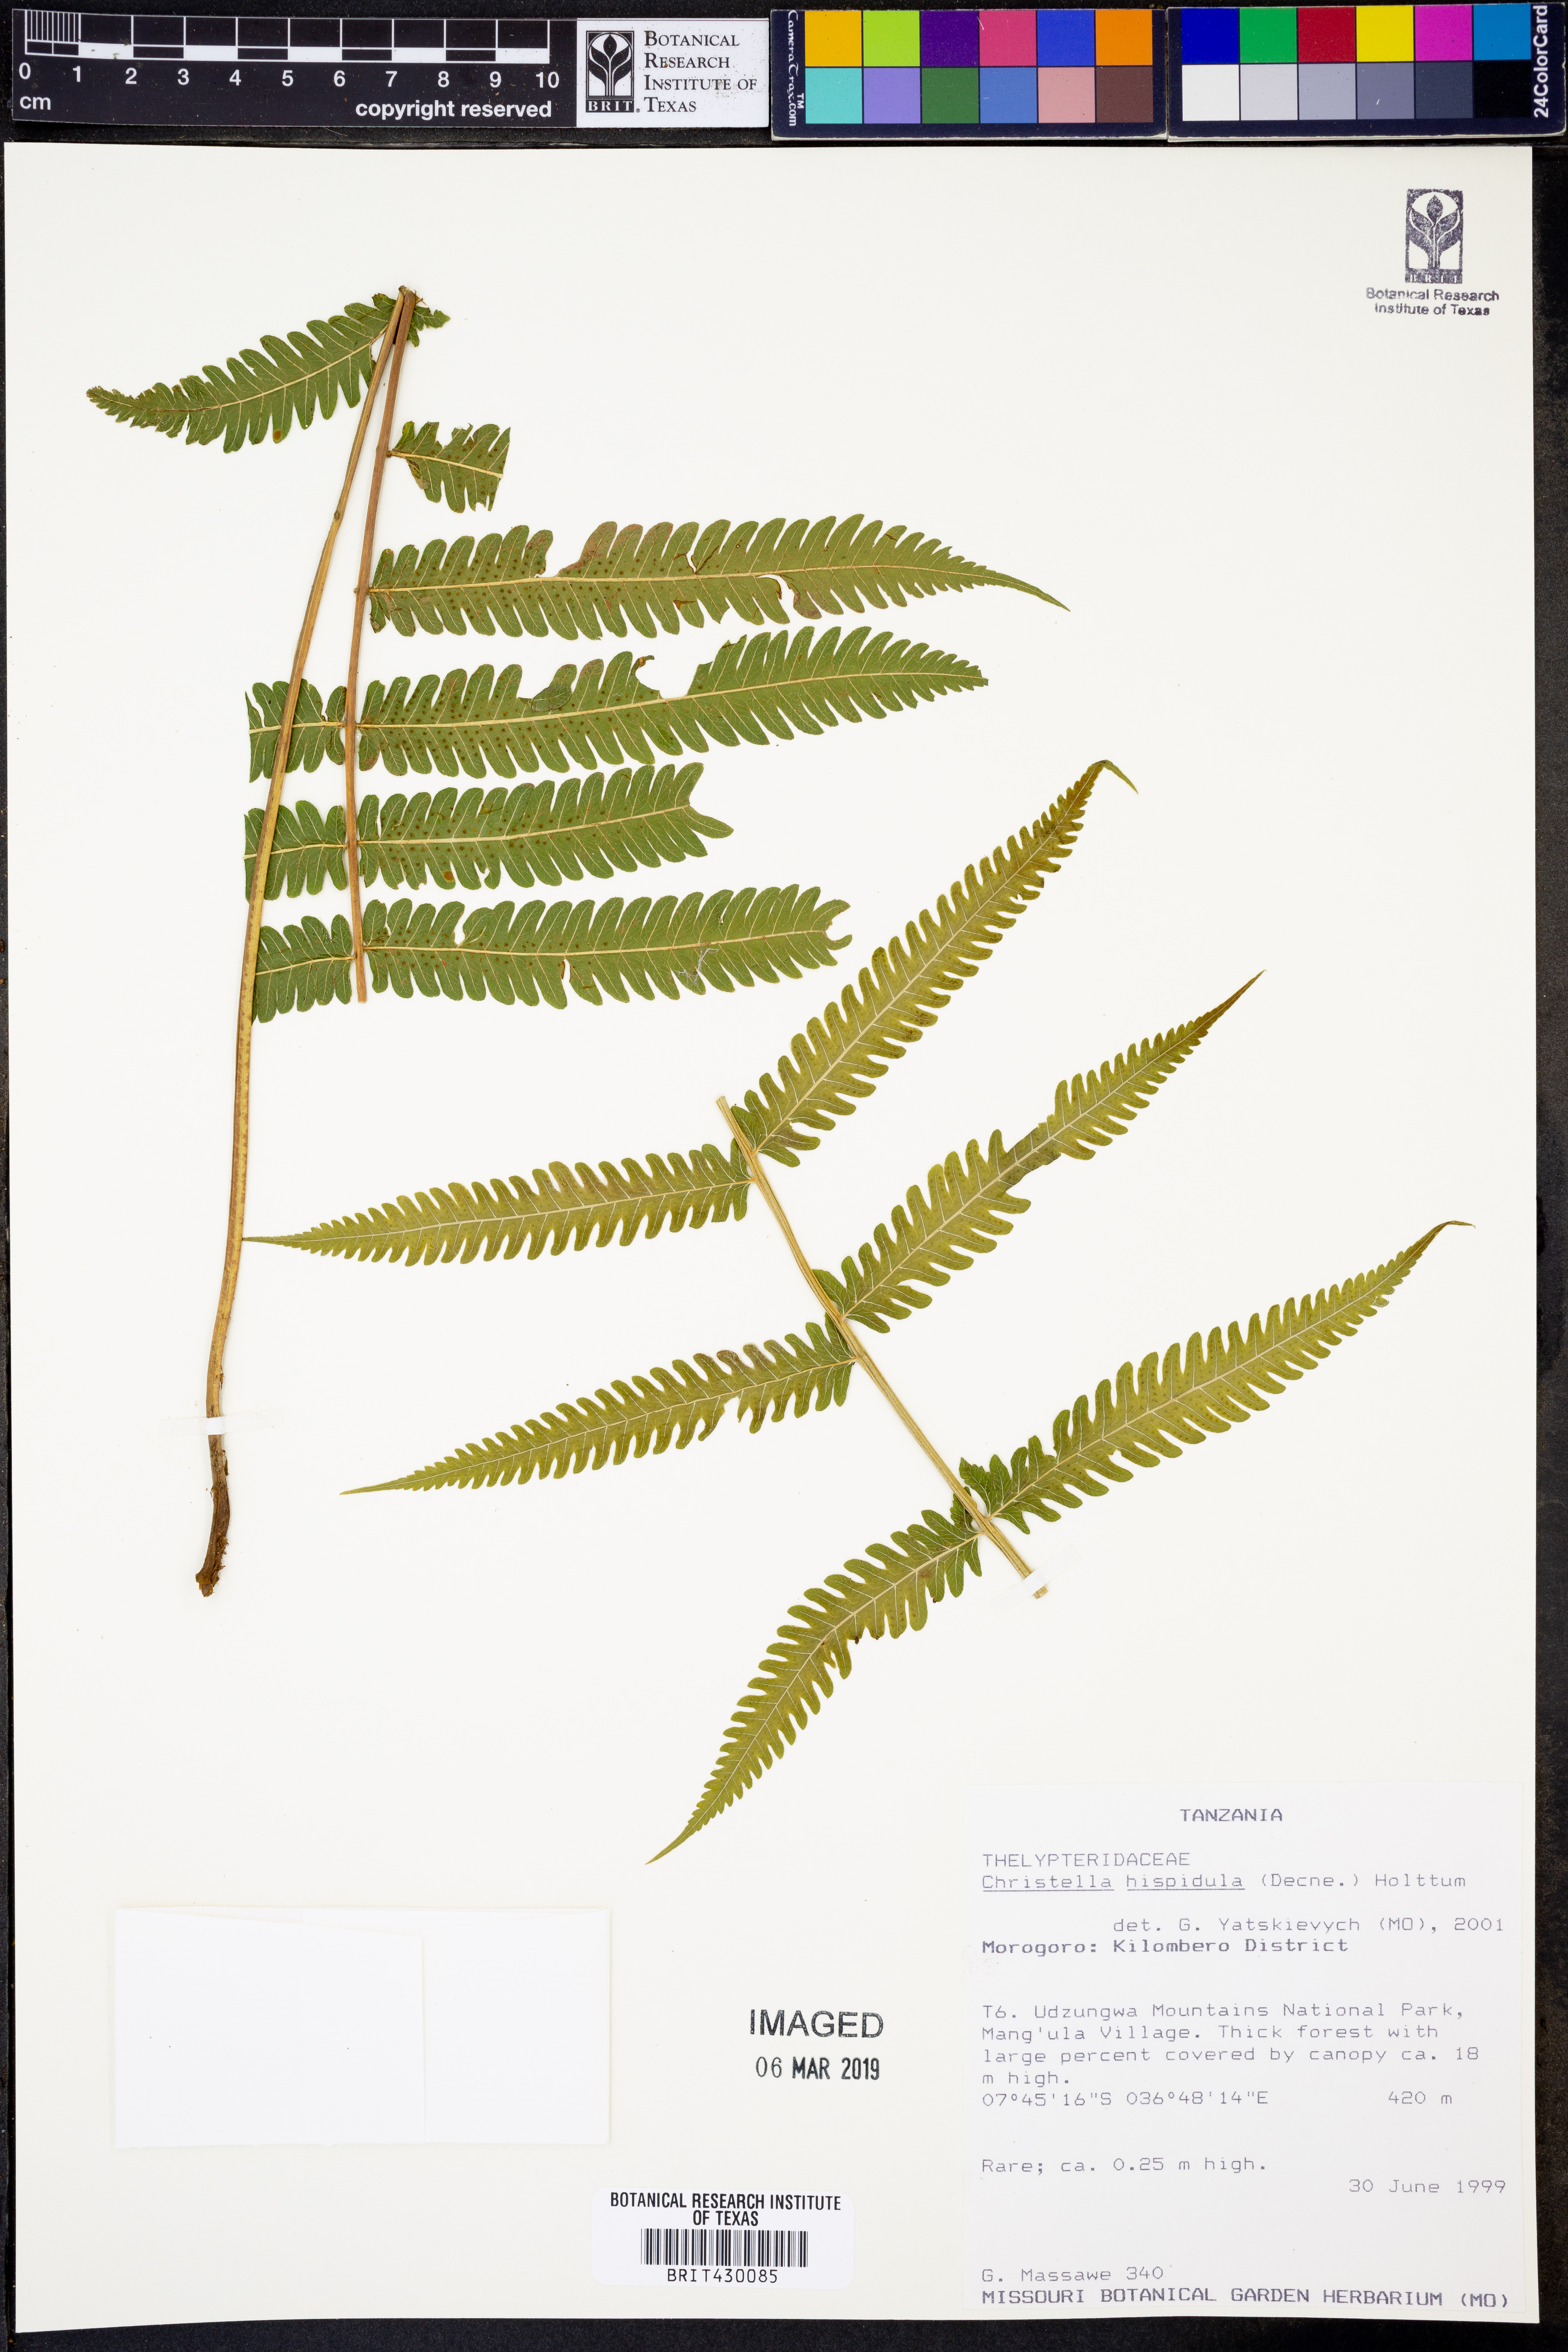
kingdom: Plantae
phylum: Tracheophyta
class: Polypodiopsida
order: Polypodiales
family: Thelypteridaceae
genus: Christella
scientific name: Christella hispidula
